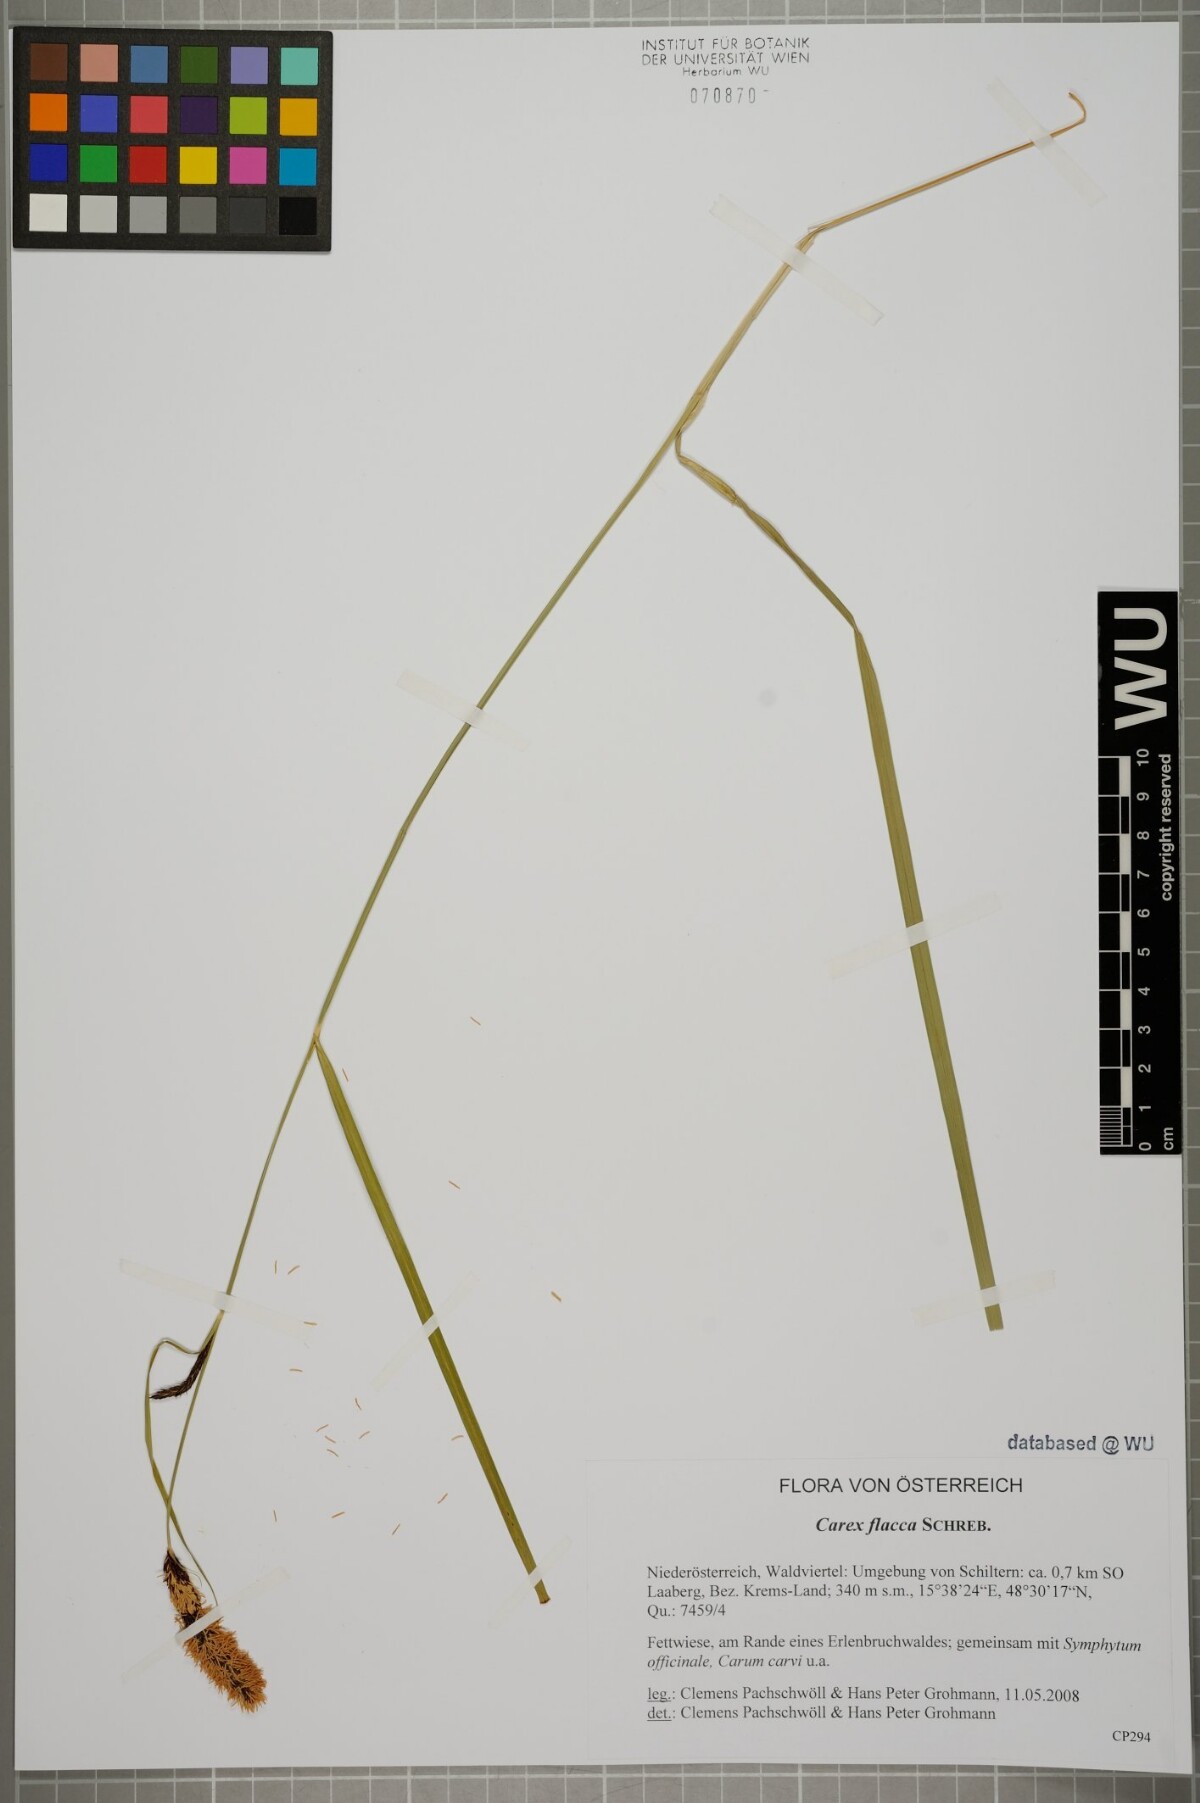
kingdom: Plantae
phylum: Tracheophyta
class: Liliopsida
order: Poales
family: Cyperaceae
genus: Carex
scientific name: Carex flacca
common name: Glaucous sedge
